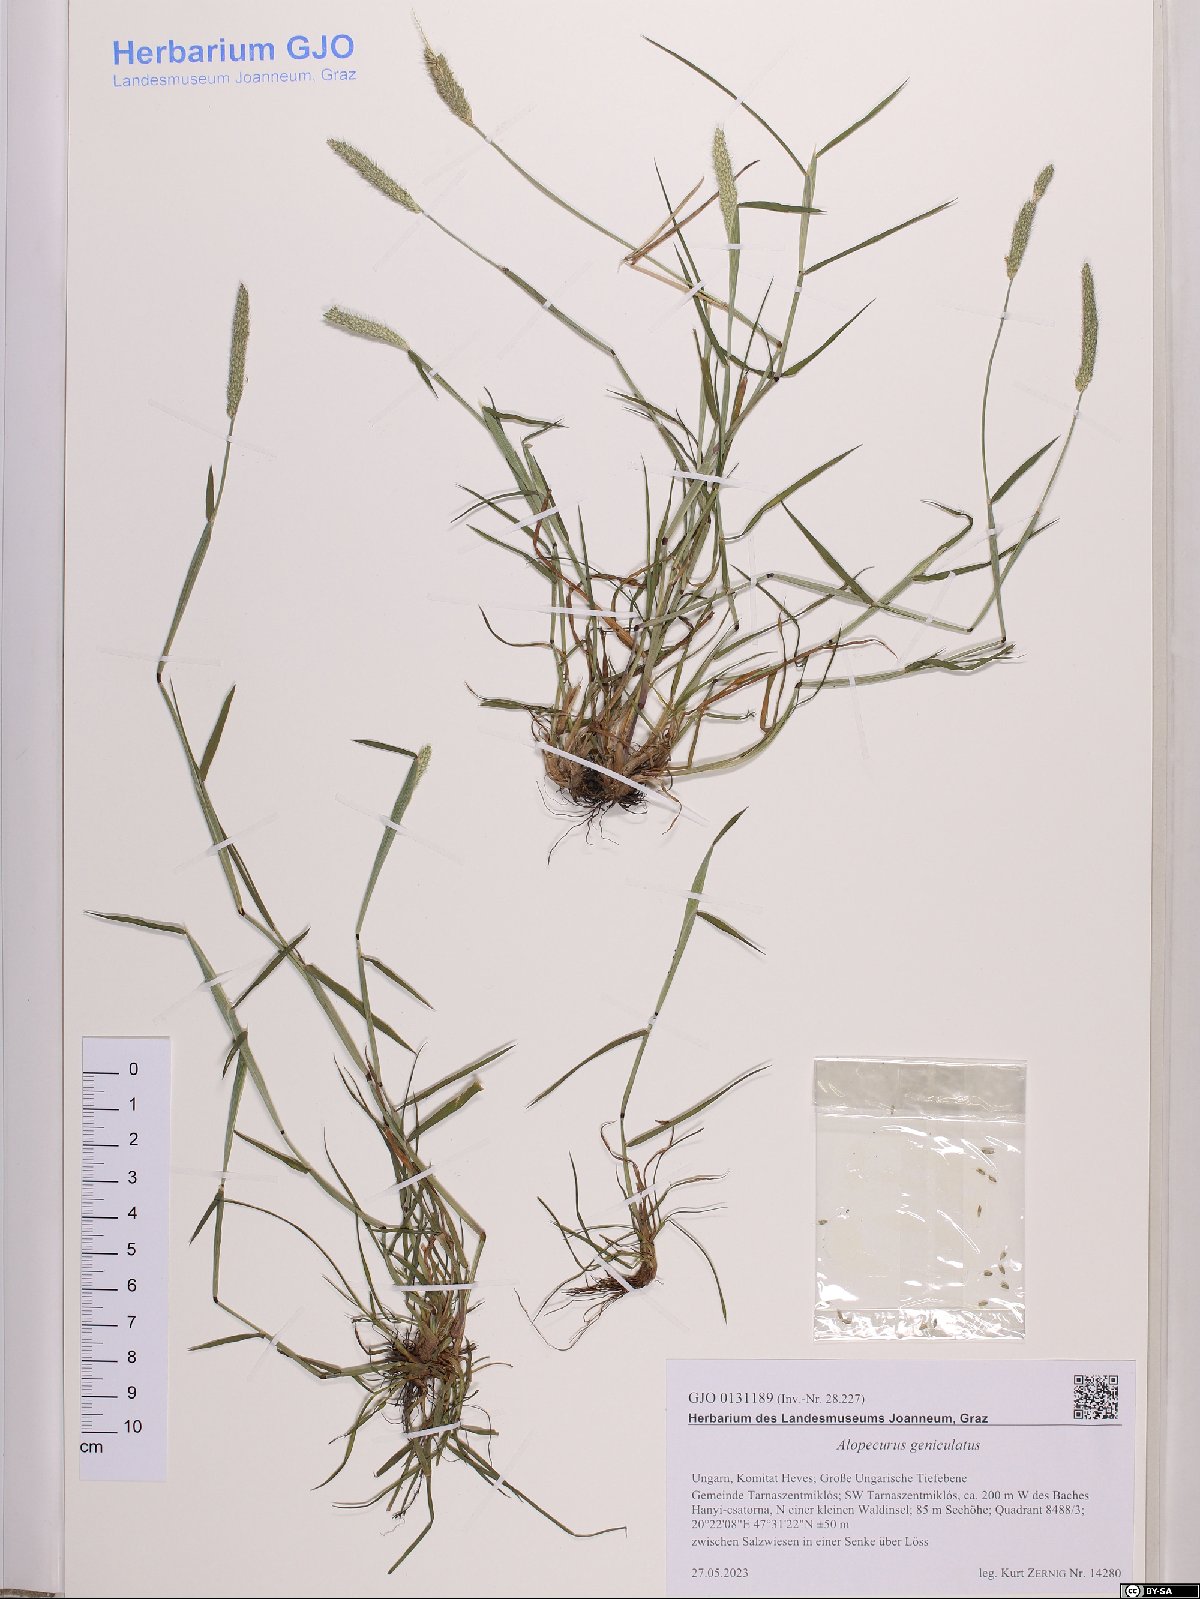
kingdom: Plantae
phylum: Tracheophyta
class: Liliopsida
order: Poales
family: Poaceae
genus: Alopecurus
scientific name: Alopecurus geniculatus
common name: Water foxtail
